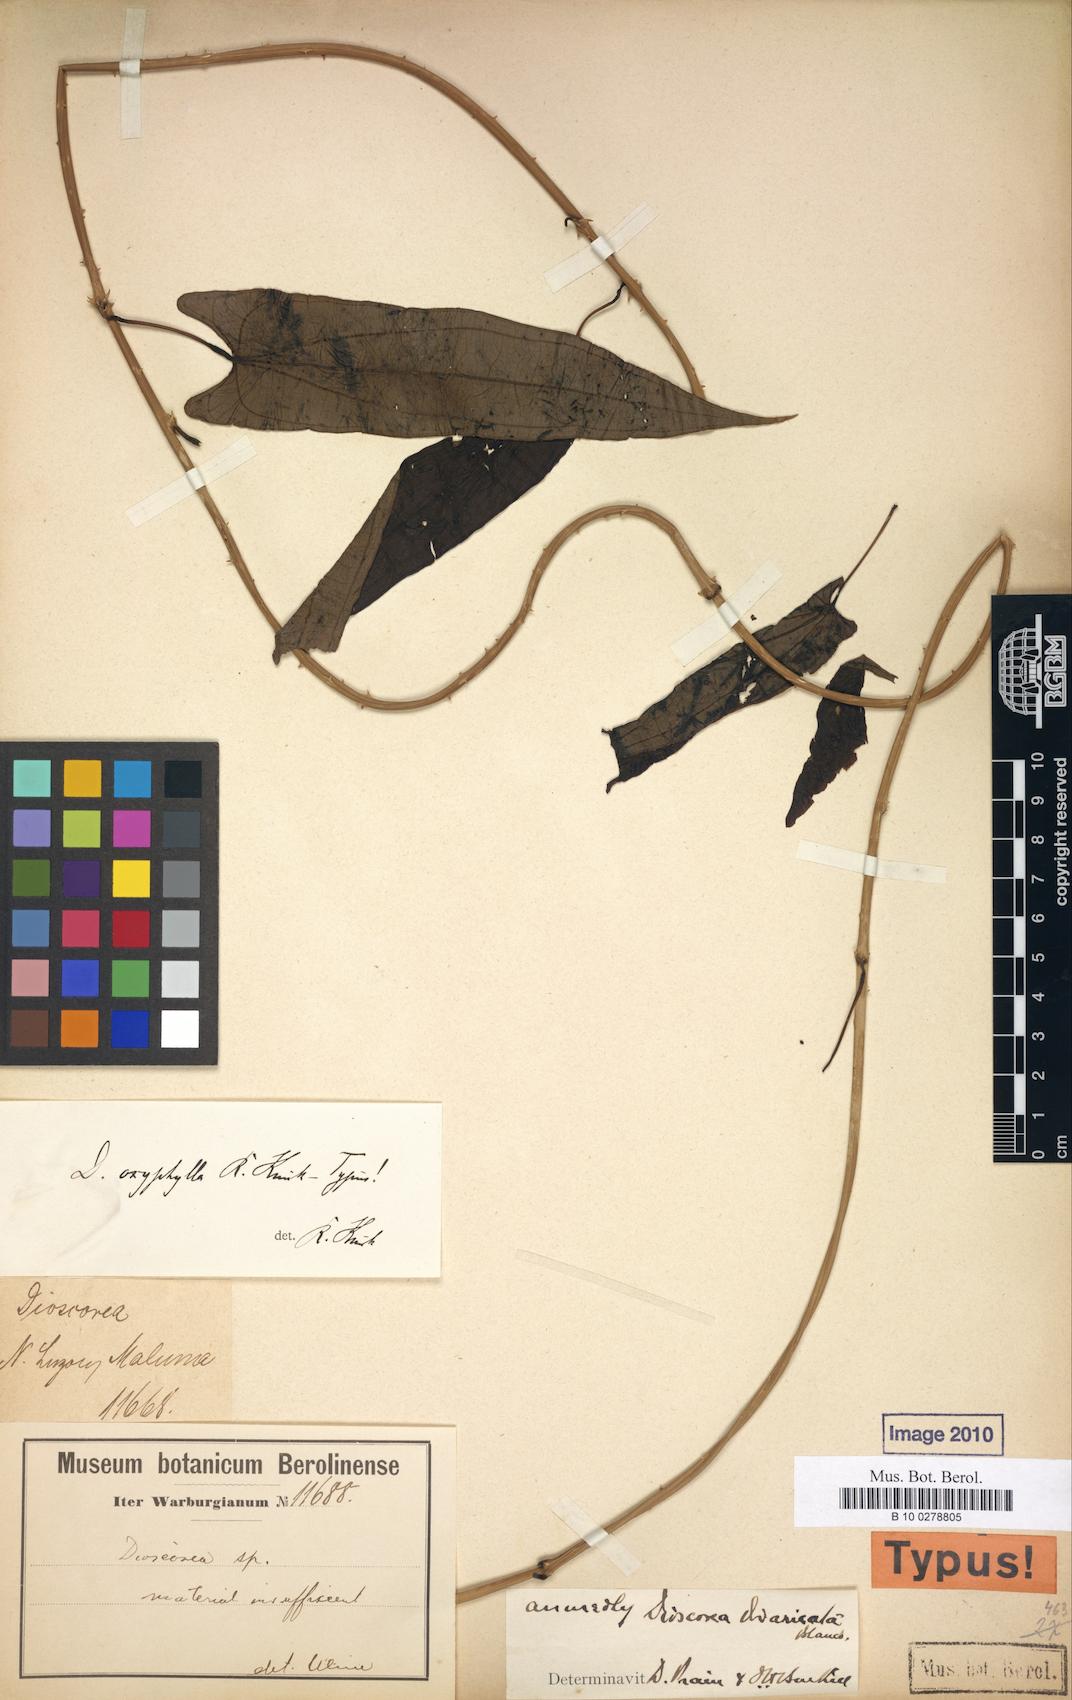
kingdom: Plantae
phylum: Tracheophyta
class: Liliopsida
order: Dioscoreales
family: Dioscoreaceae
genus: Dioscorea
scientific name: Dioscorea divaricata
